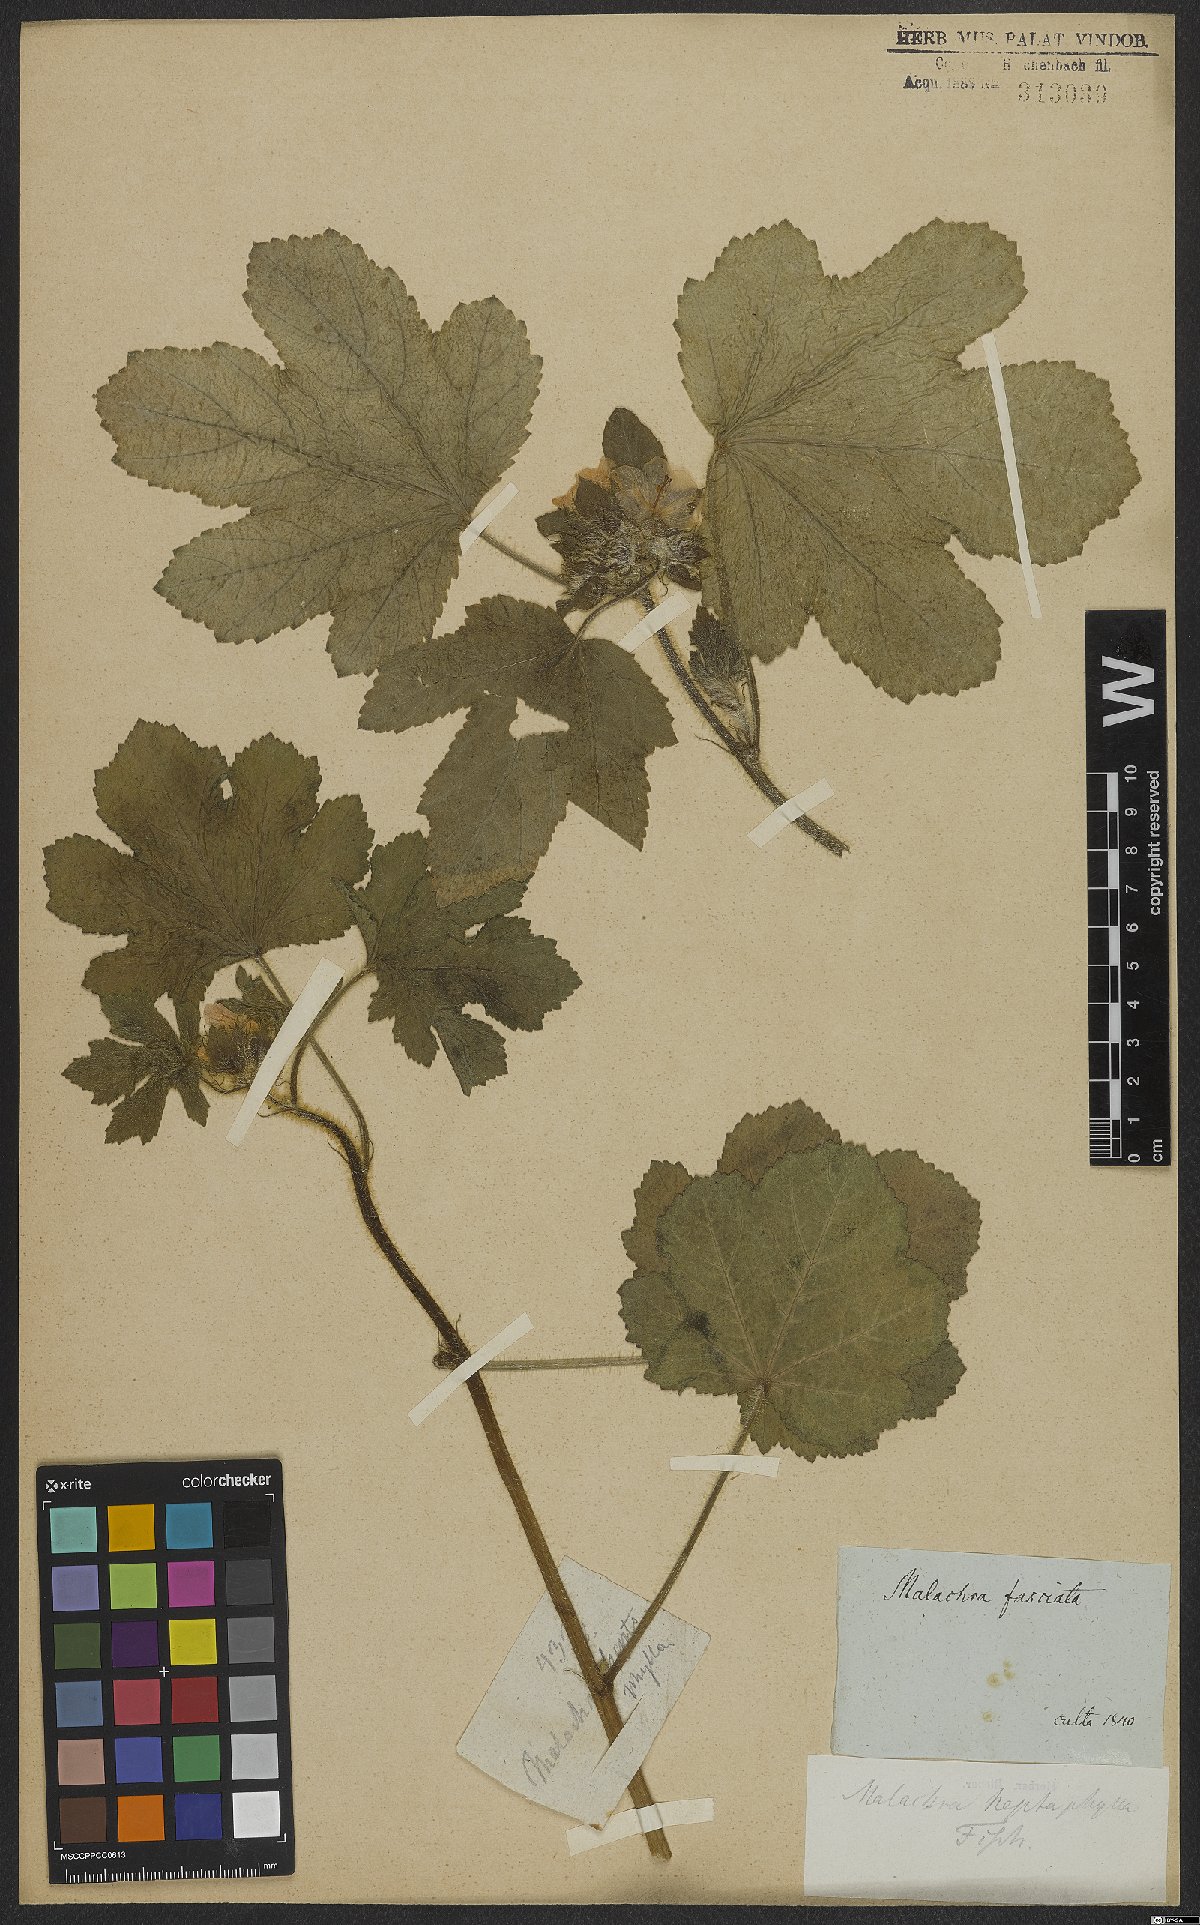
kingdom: Plantae
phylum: Tracheophyta
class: Magnoliopsida
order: Malvales
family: Malvaceae
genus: Malachra
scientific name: Malachra capitata
